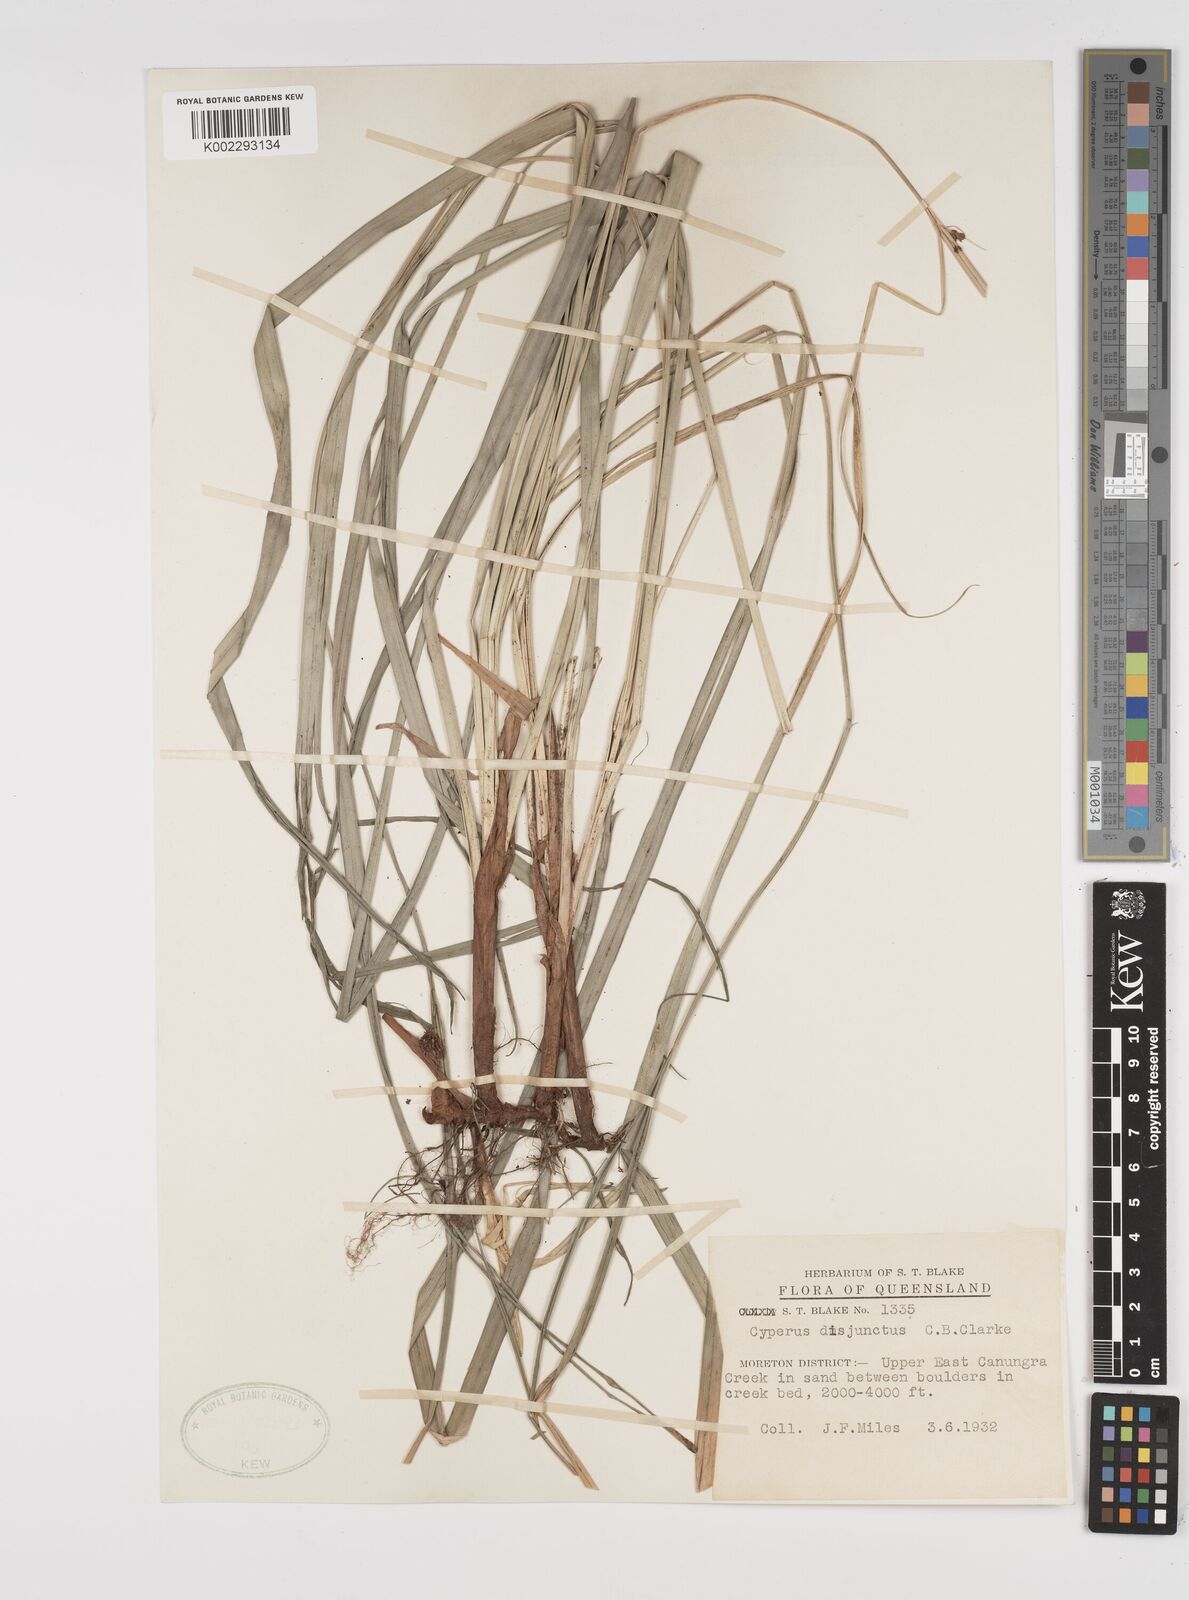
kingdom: Plantae
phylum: Tracheophyta
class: Liliopsida
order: Poales
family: Cyperaceae
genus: Cyperus
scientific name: Cyperus disjunctus
